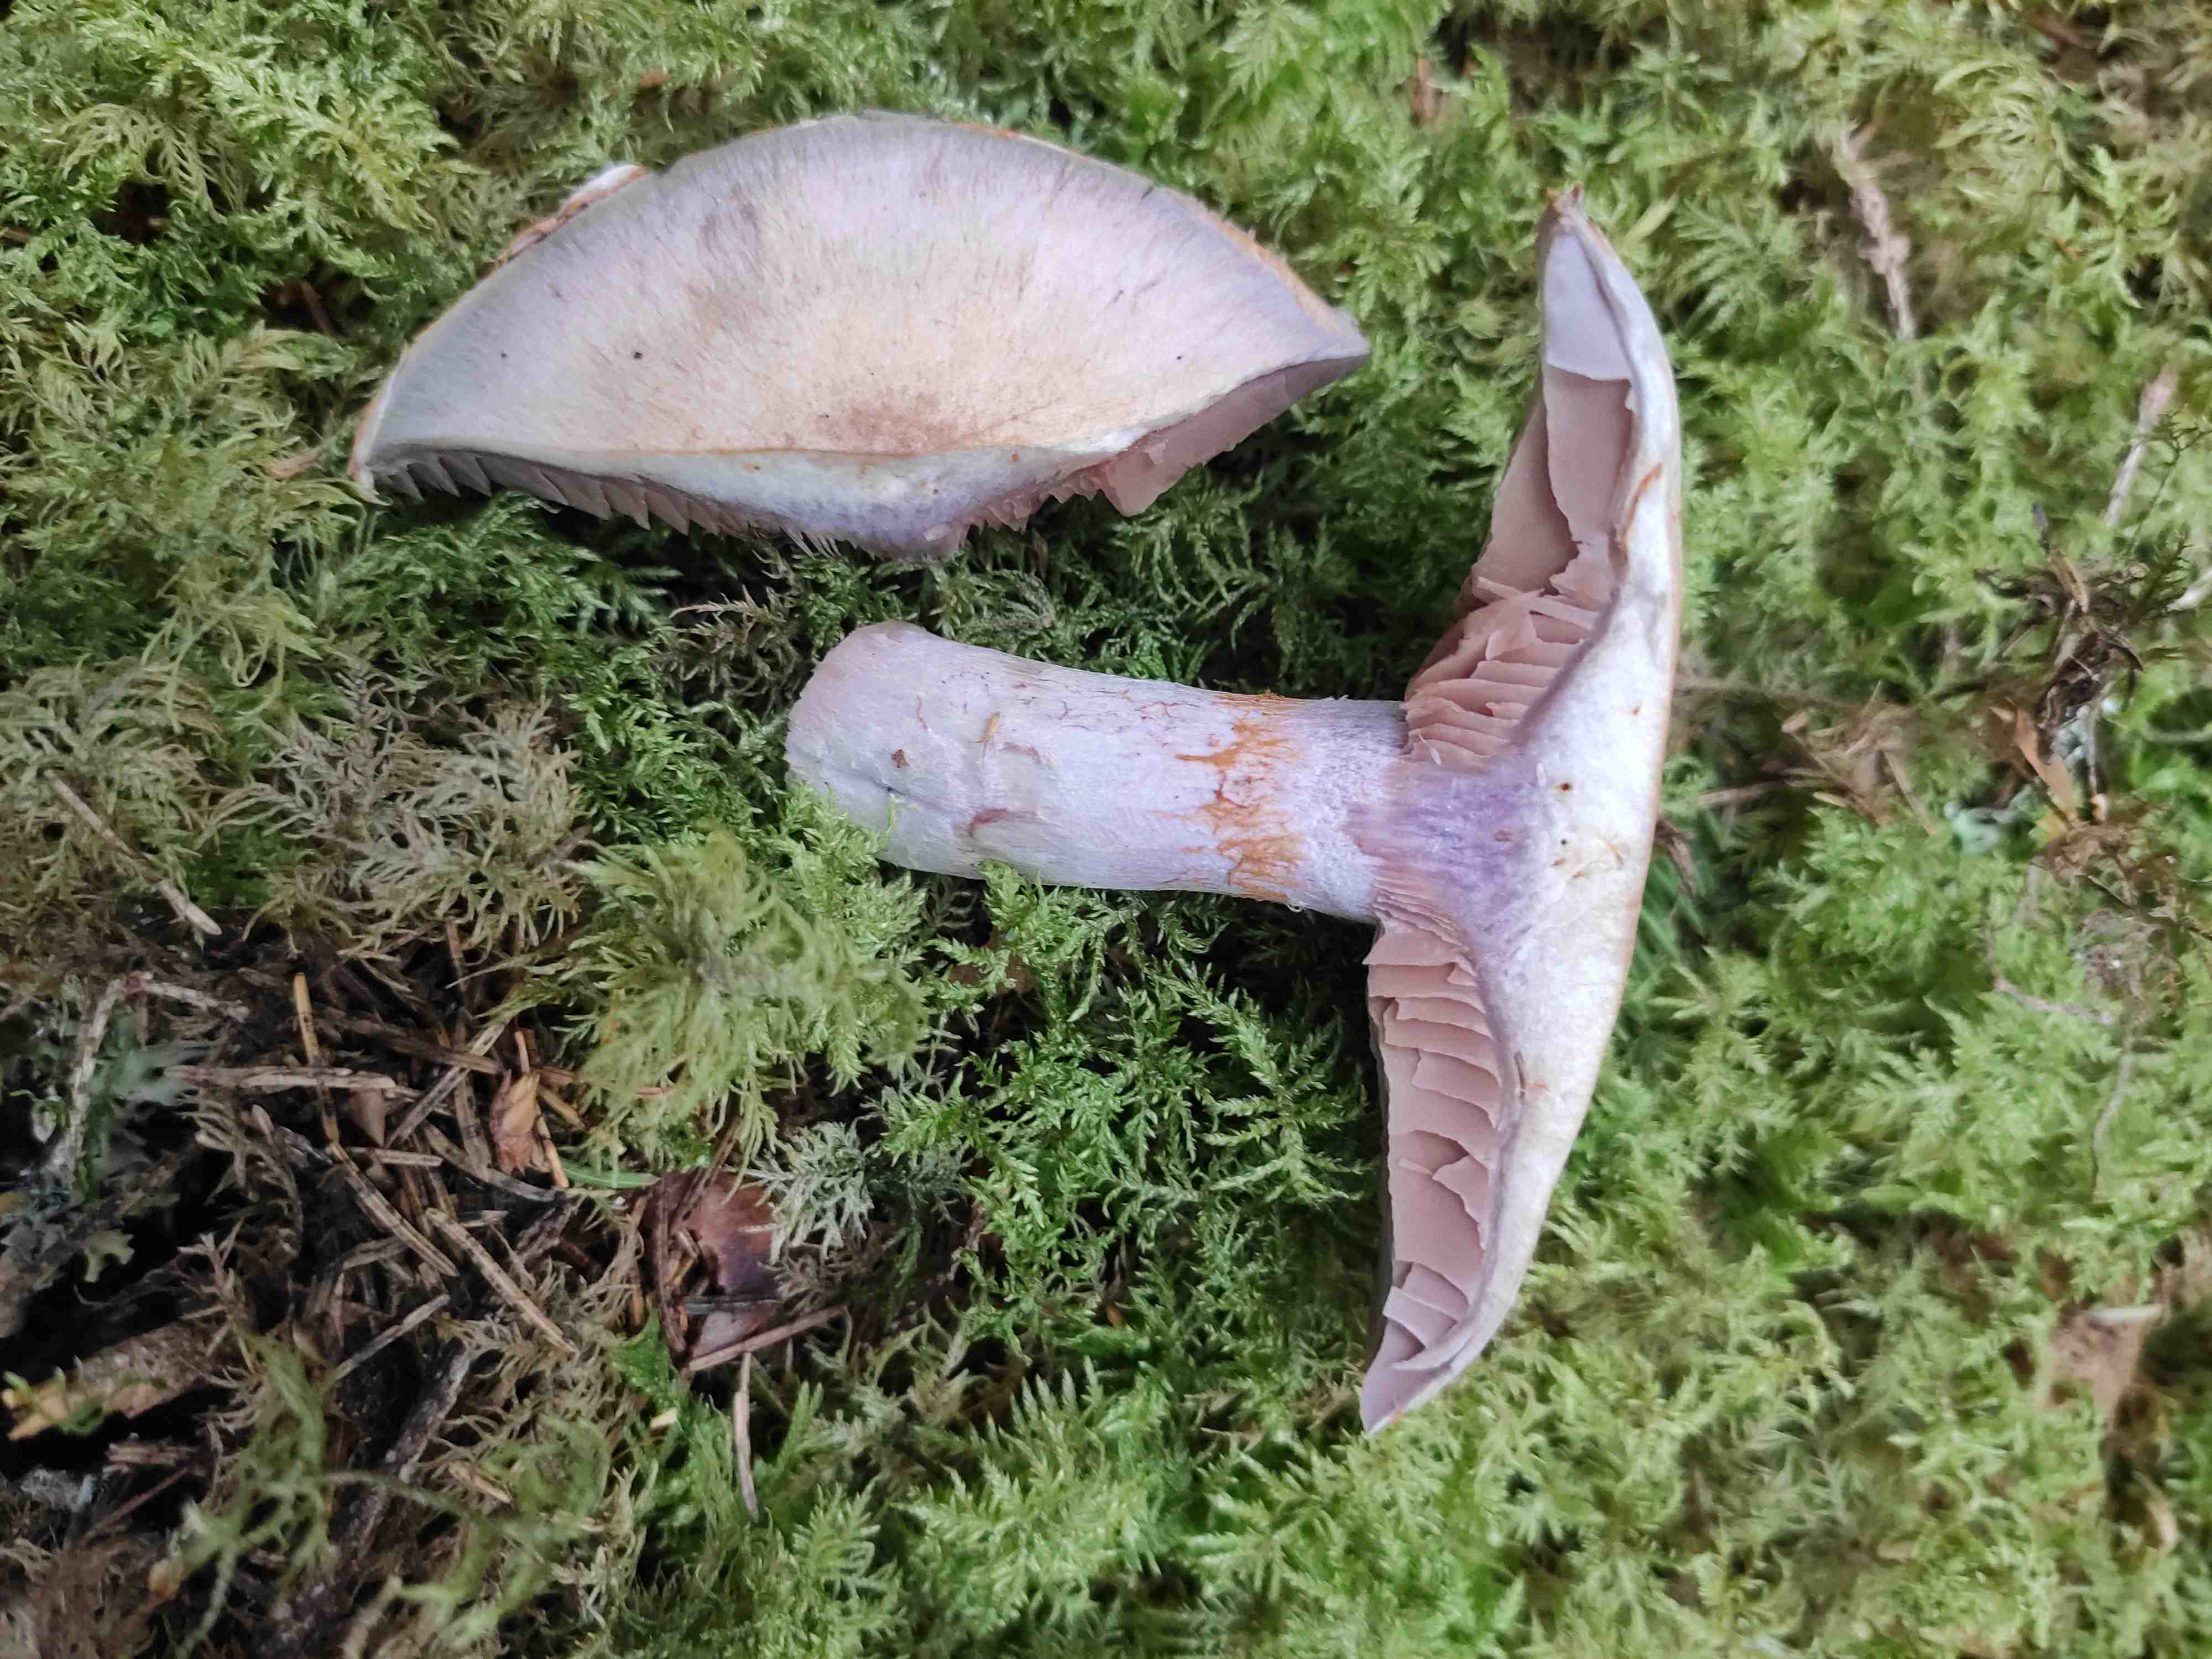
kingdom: Fungi
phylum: Basidiomycota
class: Agaricomycetes
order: Agaricales
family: Cortinariaceae
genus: Cortinarius
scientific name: Cortinarius
